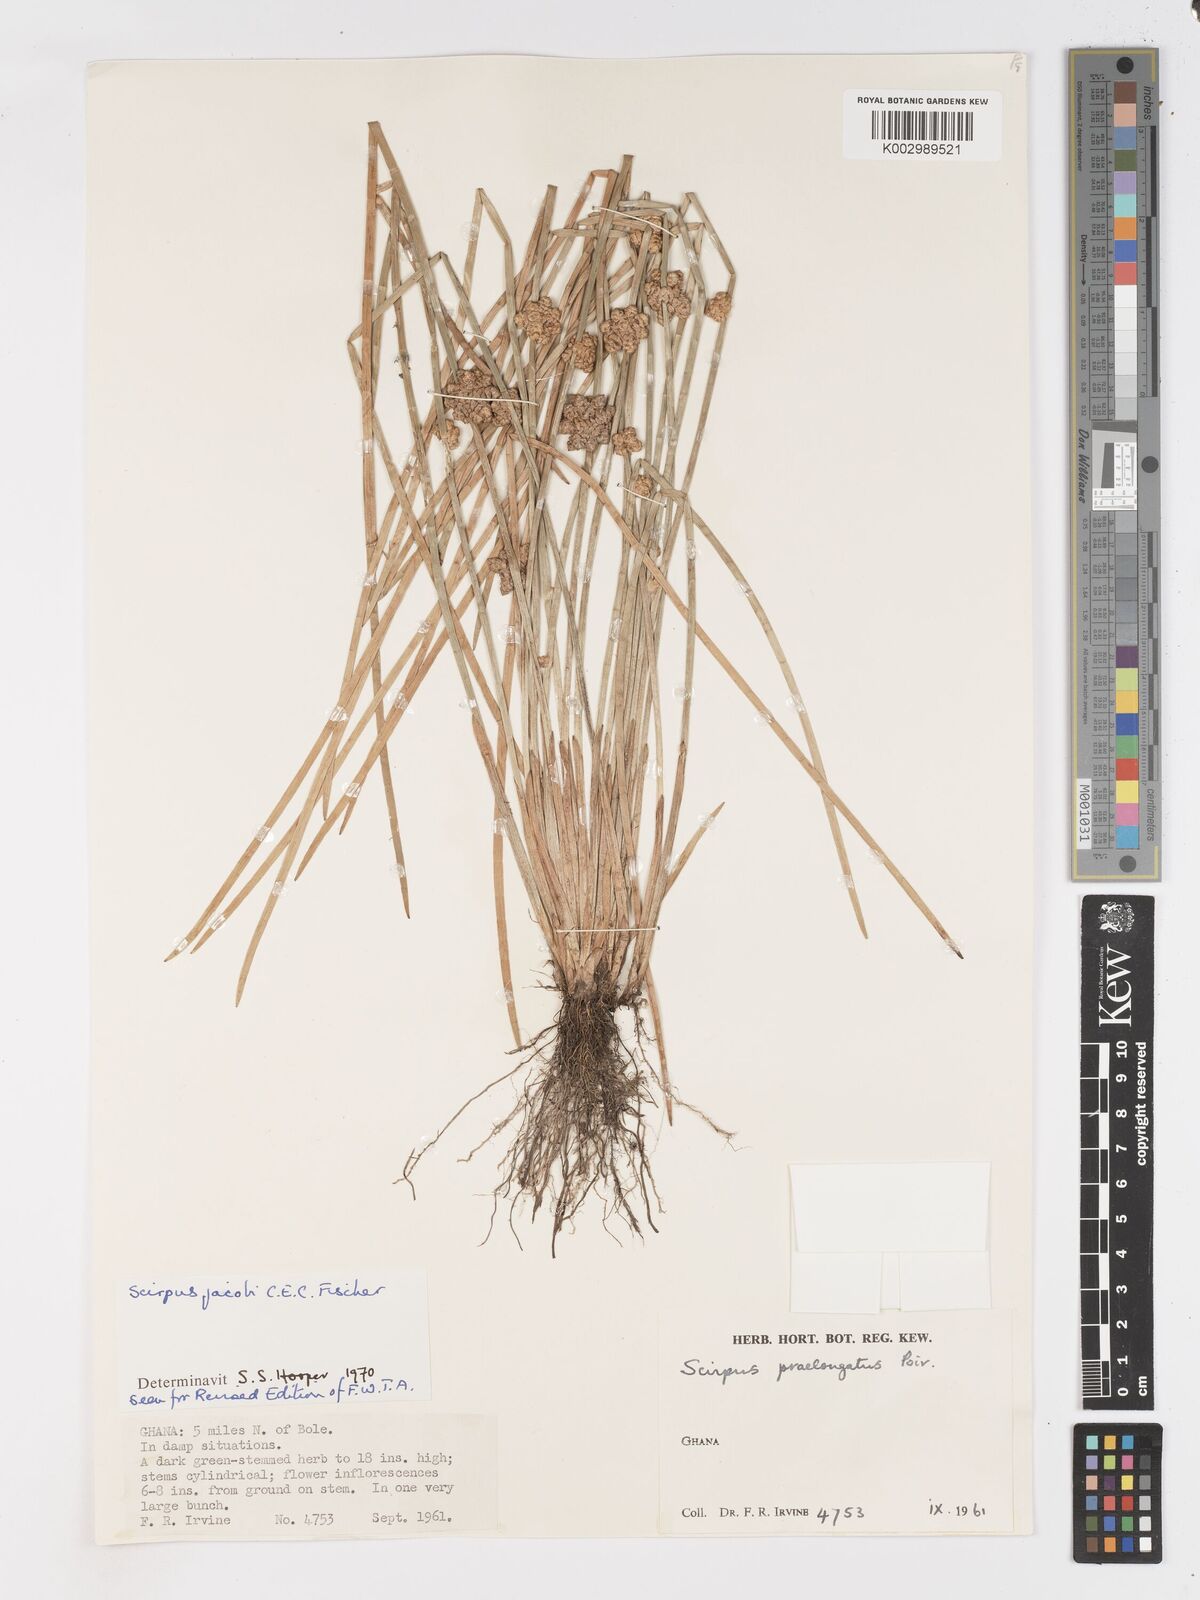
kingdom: Plantae
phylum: Tracheophyta
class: Liliopsida
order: Poales
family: Cyperaceae
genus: Schoenoplectiella
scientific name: Schoenoplectiella senegalensis
